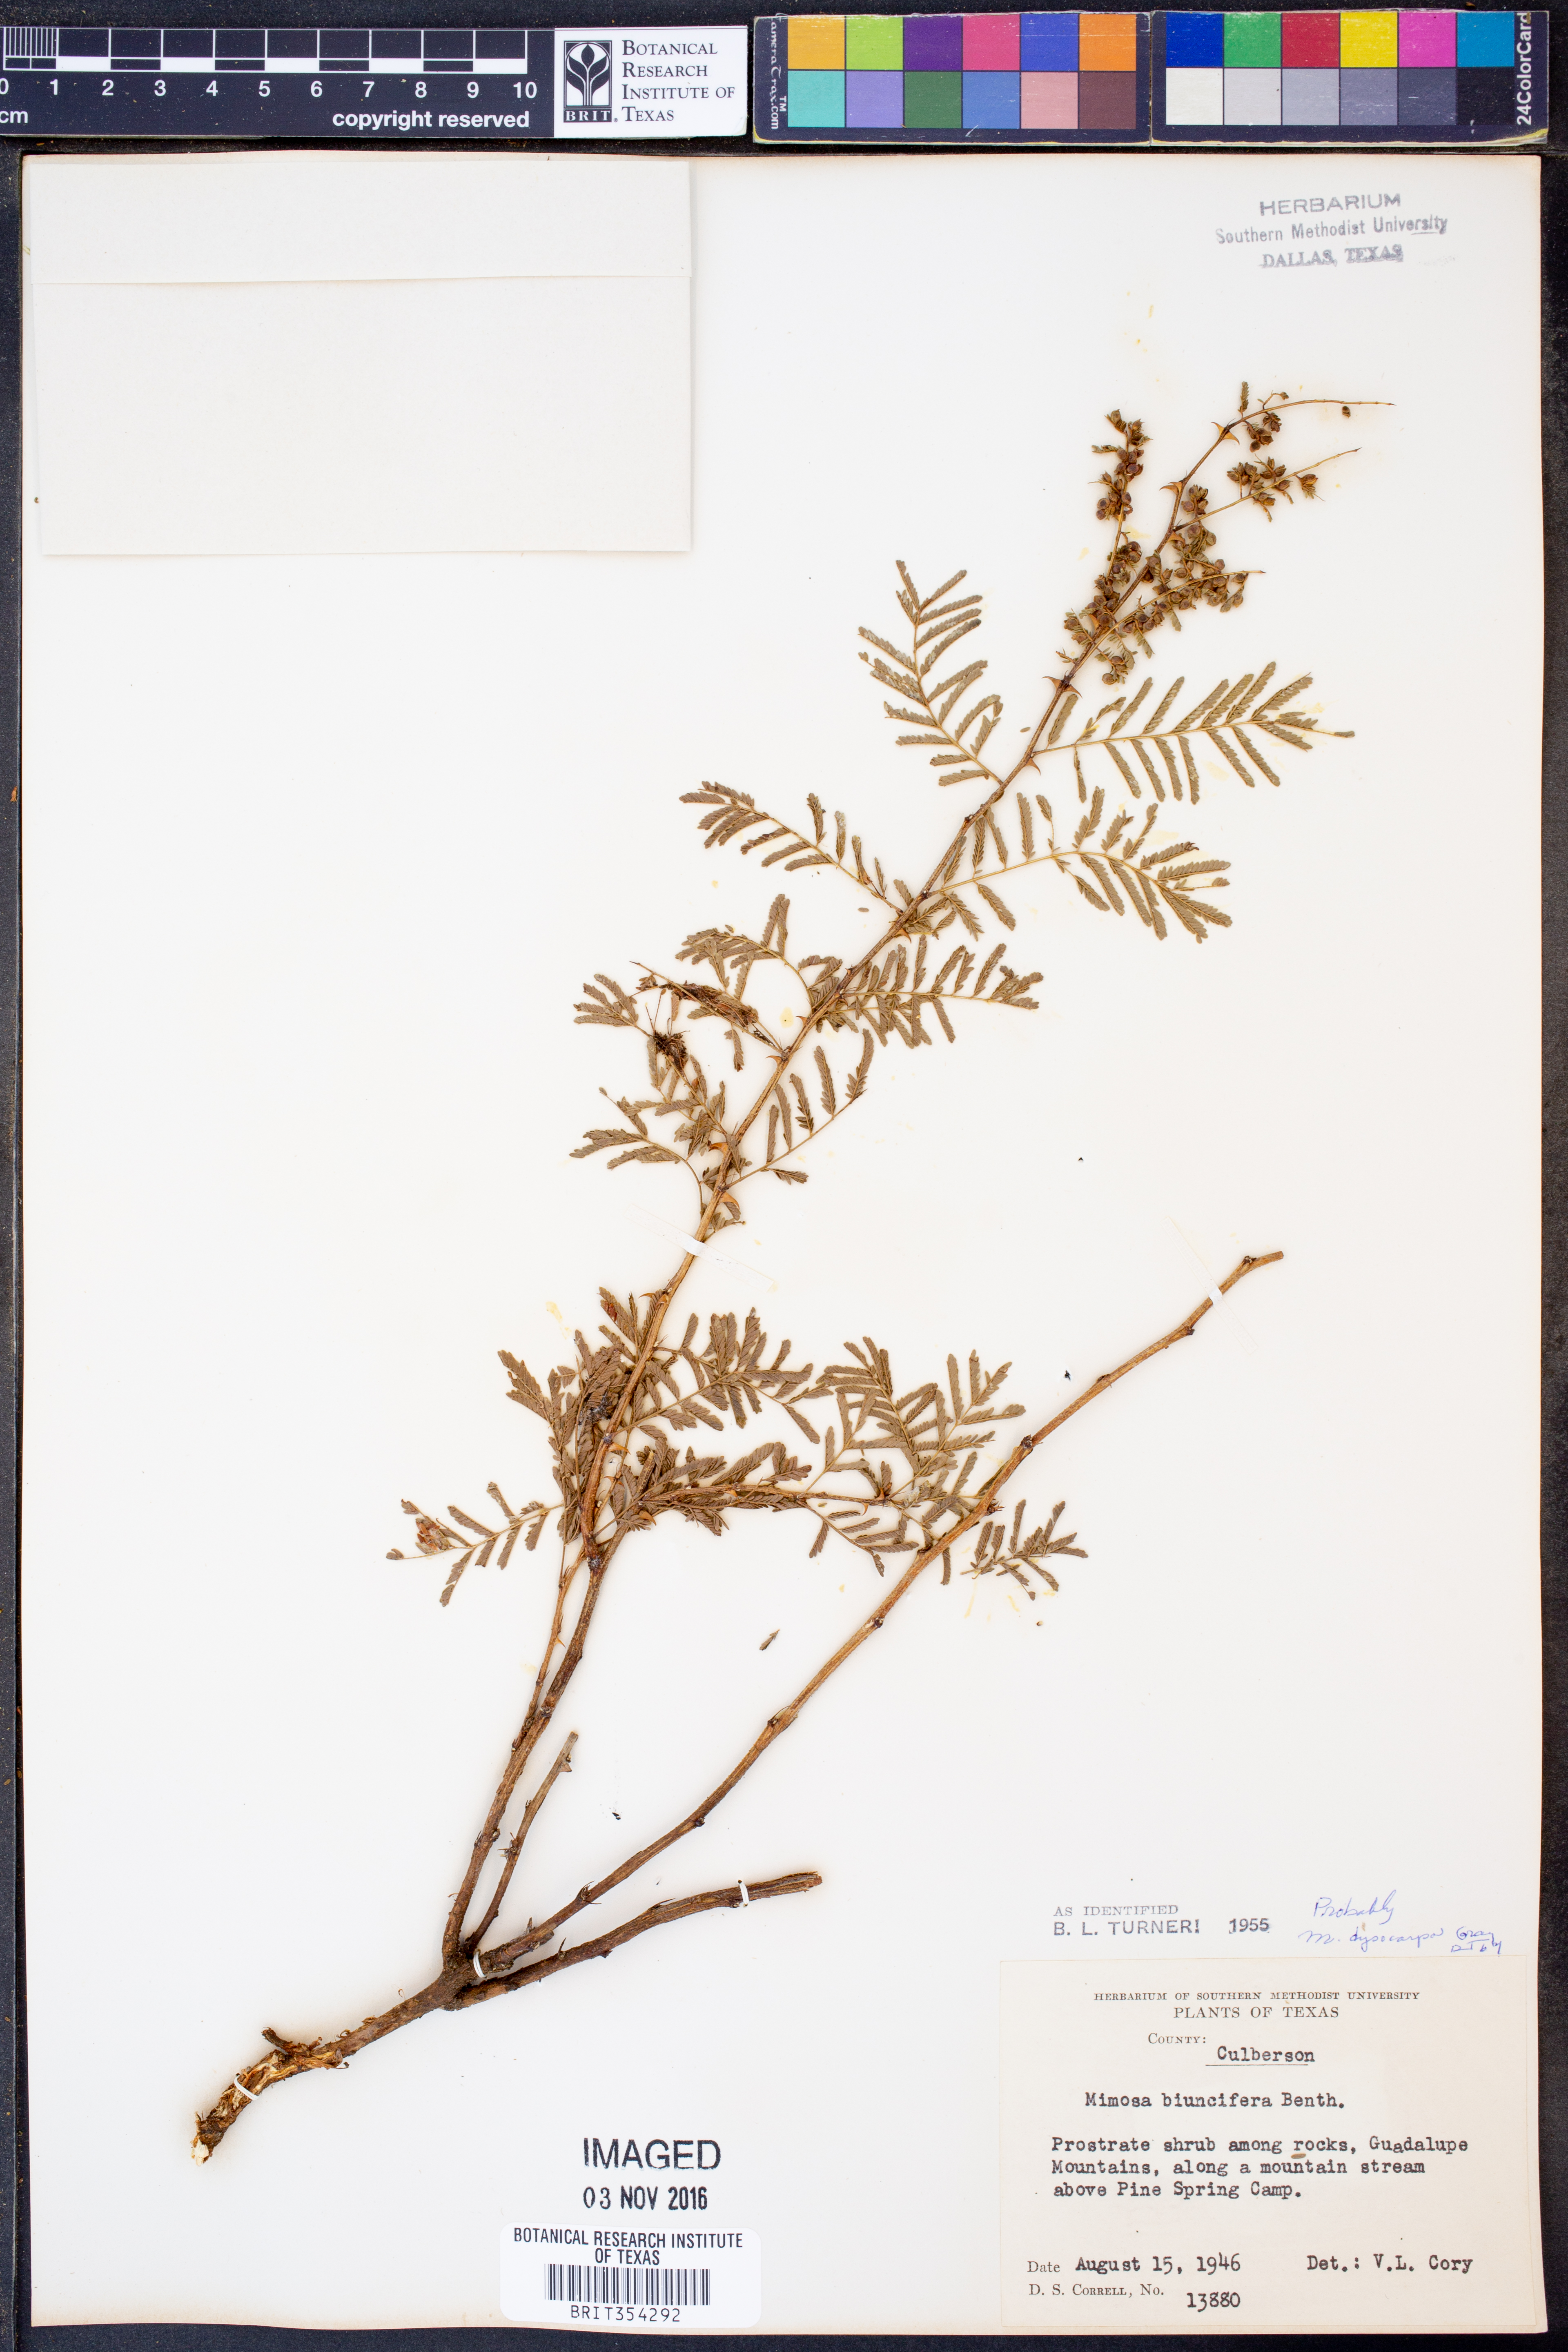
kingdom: Plantae
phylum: Tracheophyta
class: Magnoliopsida
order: Fabales
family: Fabaceae
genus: Mimosa
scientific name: Mimosa biuncifera
